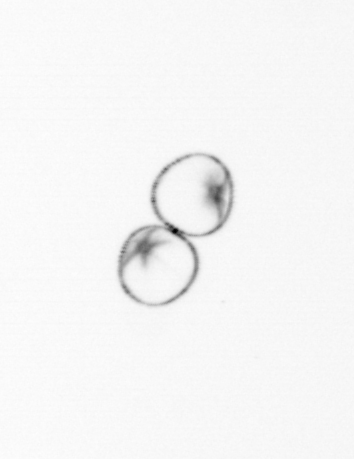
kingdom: Chromista
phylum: Ochrophyta
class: Bacillariophyceae
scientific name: Bacillariophyceae
